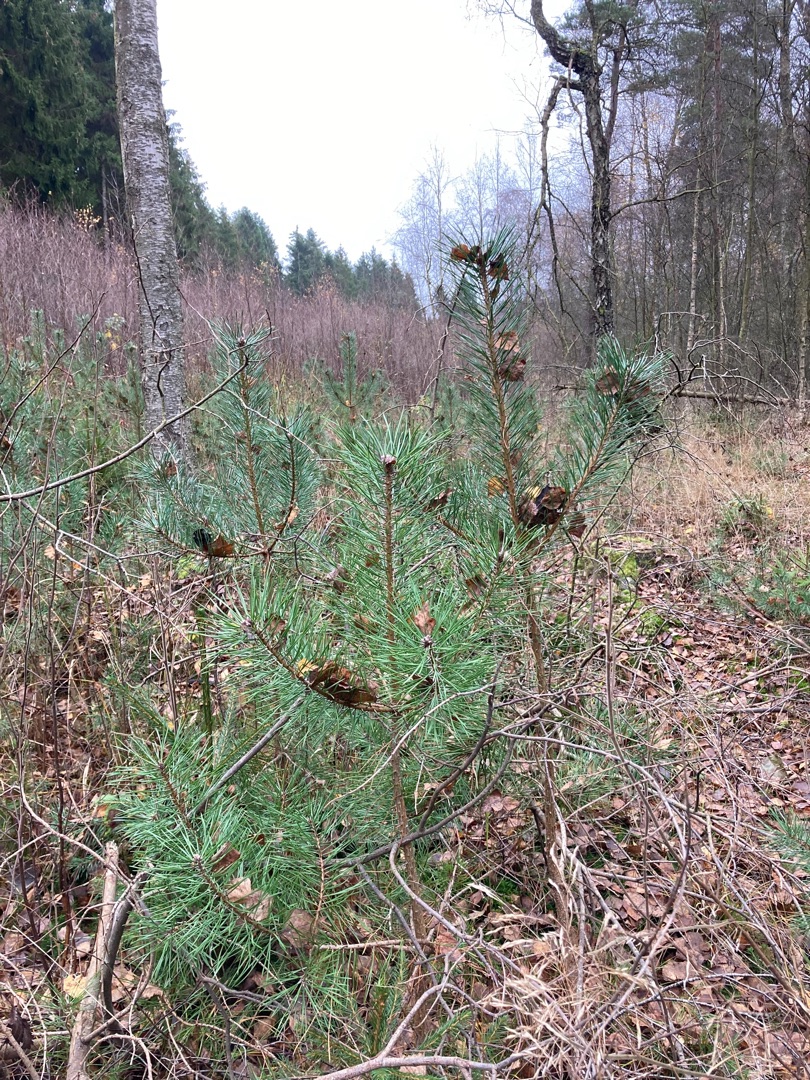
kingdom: Plantae
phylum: Tracheophyta
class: Pinopsida
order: Pinales
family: Pinaceae
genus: Pinus
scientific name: Pinus sylvestris
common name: Skov-fyr
